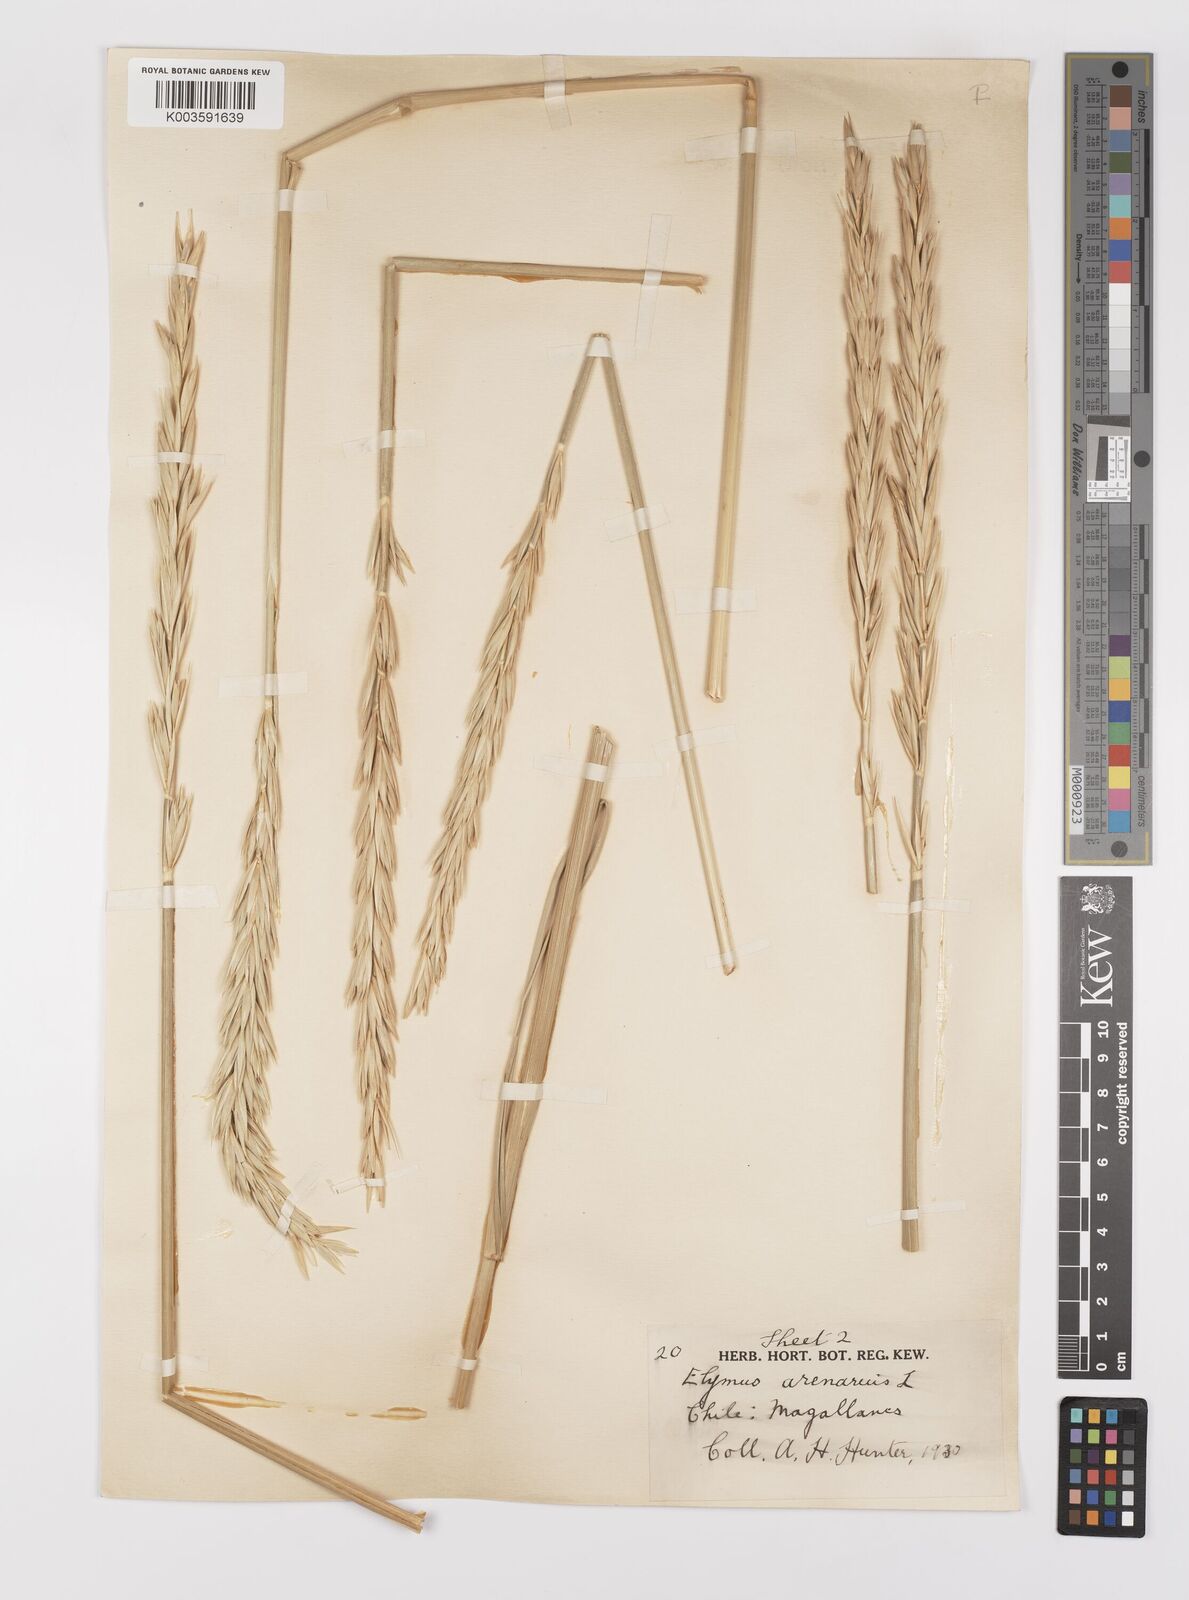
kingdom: Plantae
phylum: Tracheophyta
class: Liliopsida
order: Poales
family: Poaceae
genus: Leymus
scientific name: Leymus arenarius
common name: Lyme-grass
